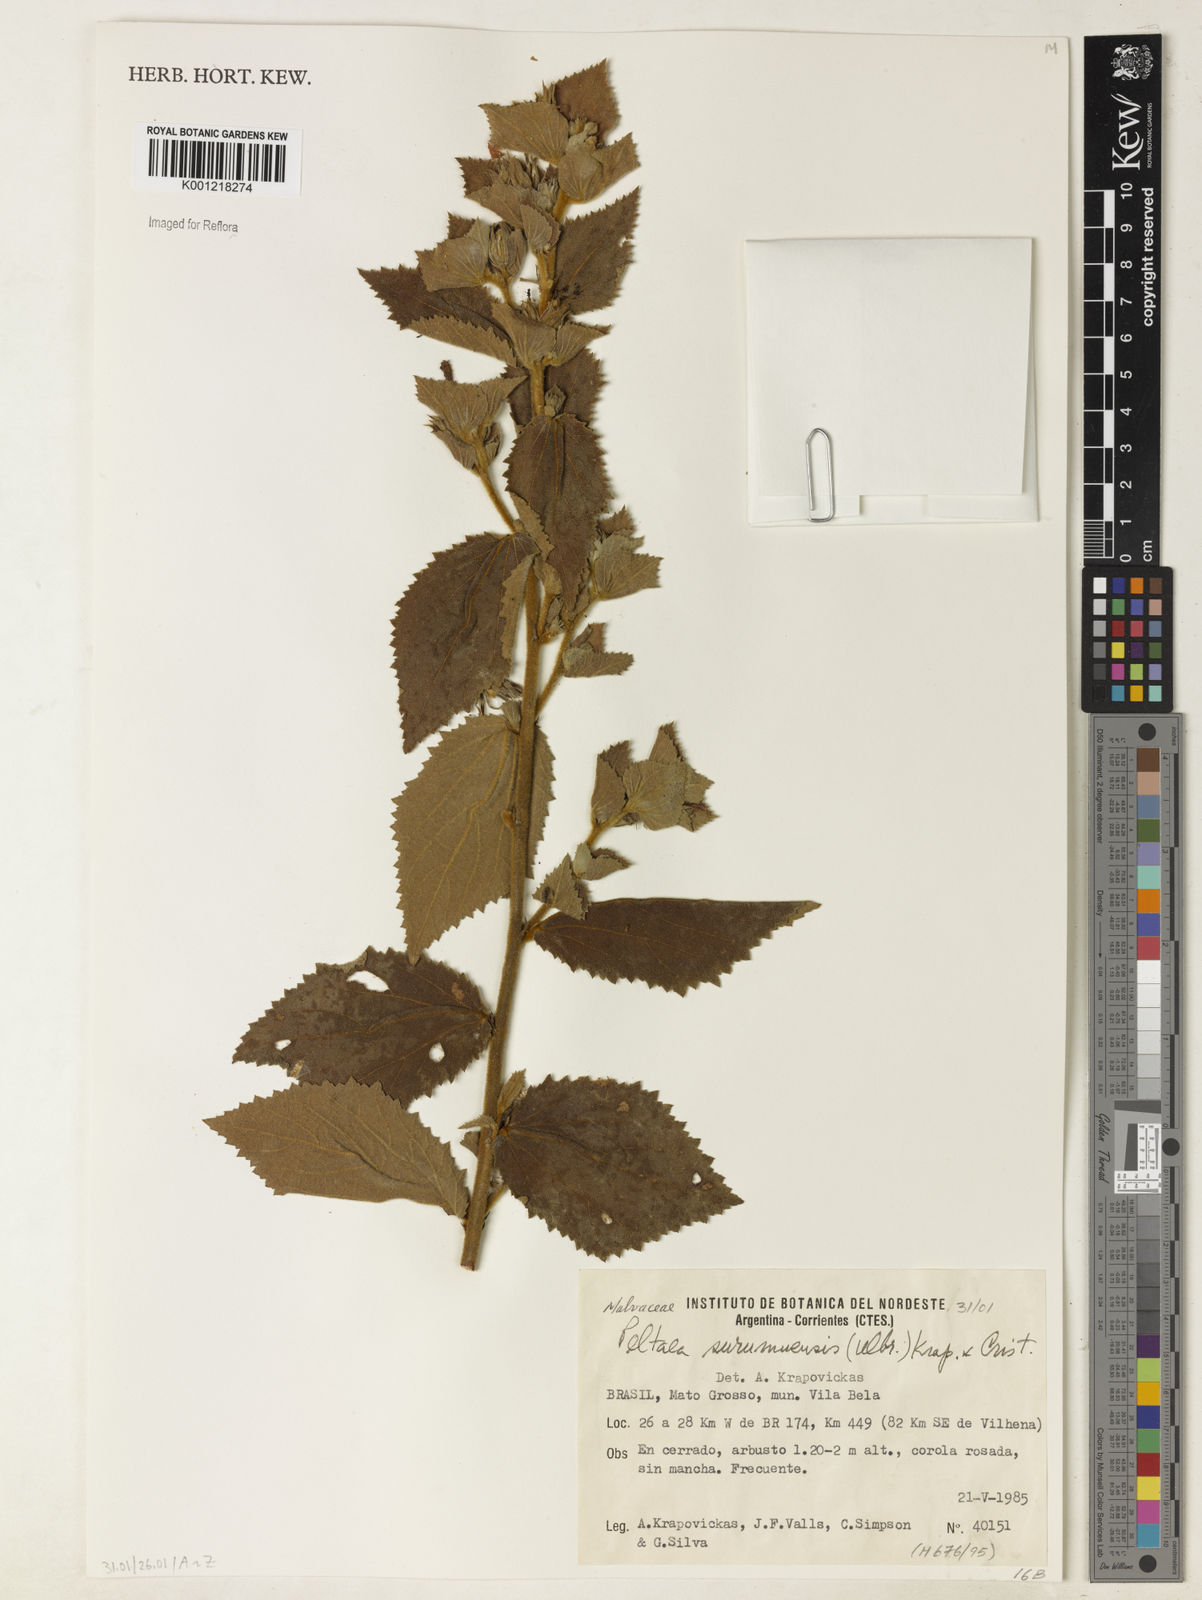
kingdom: Plantae
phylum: Tracheophyta
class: Magnoliopsida
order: Malvales
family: Malvaceae
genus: Peltaea
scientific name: Peltaea
